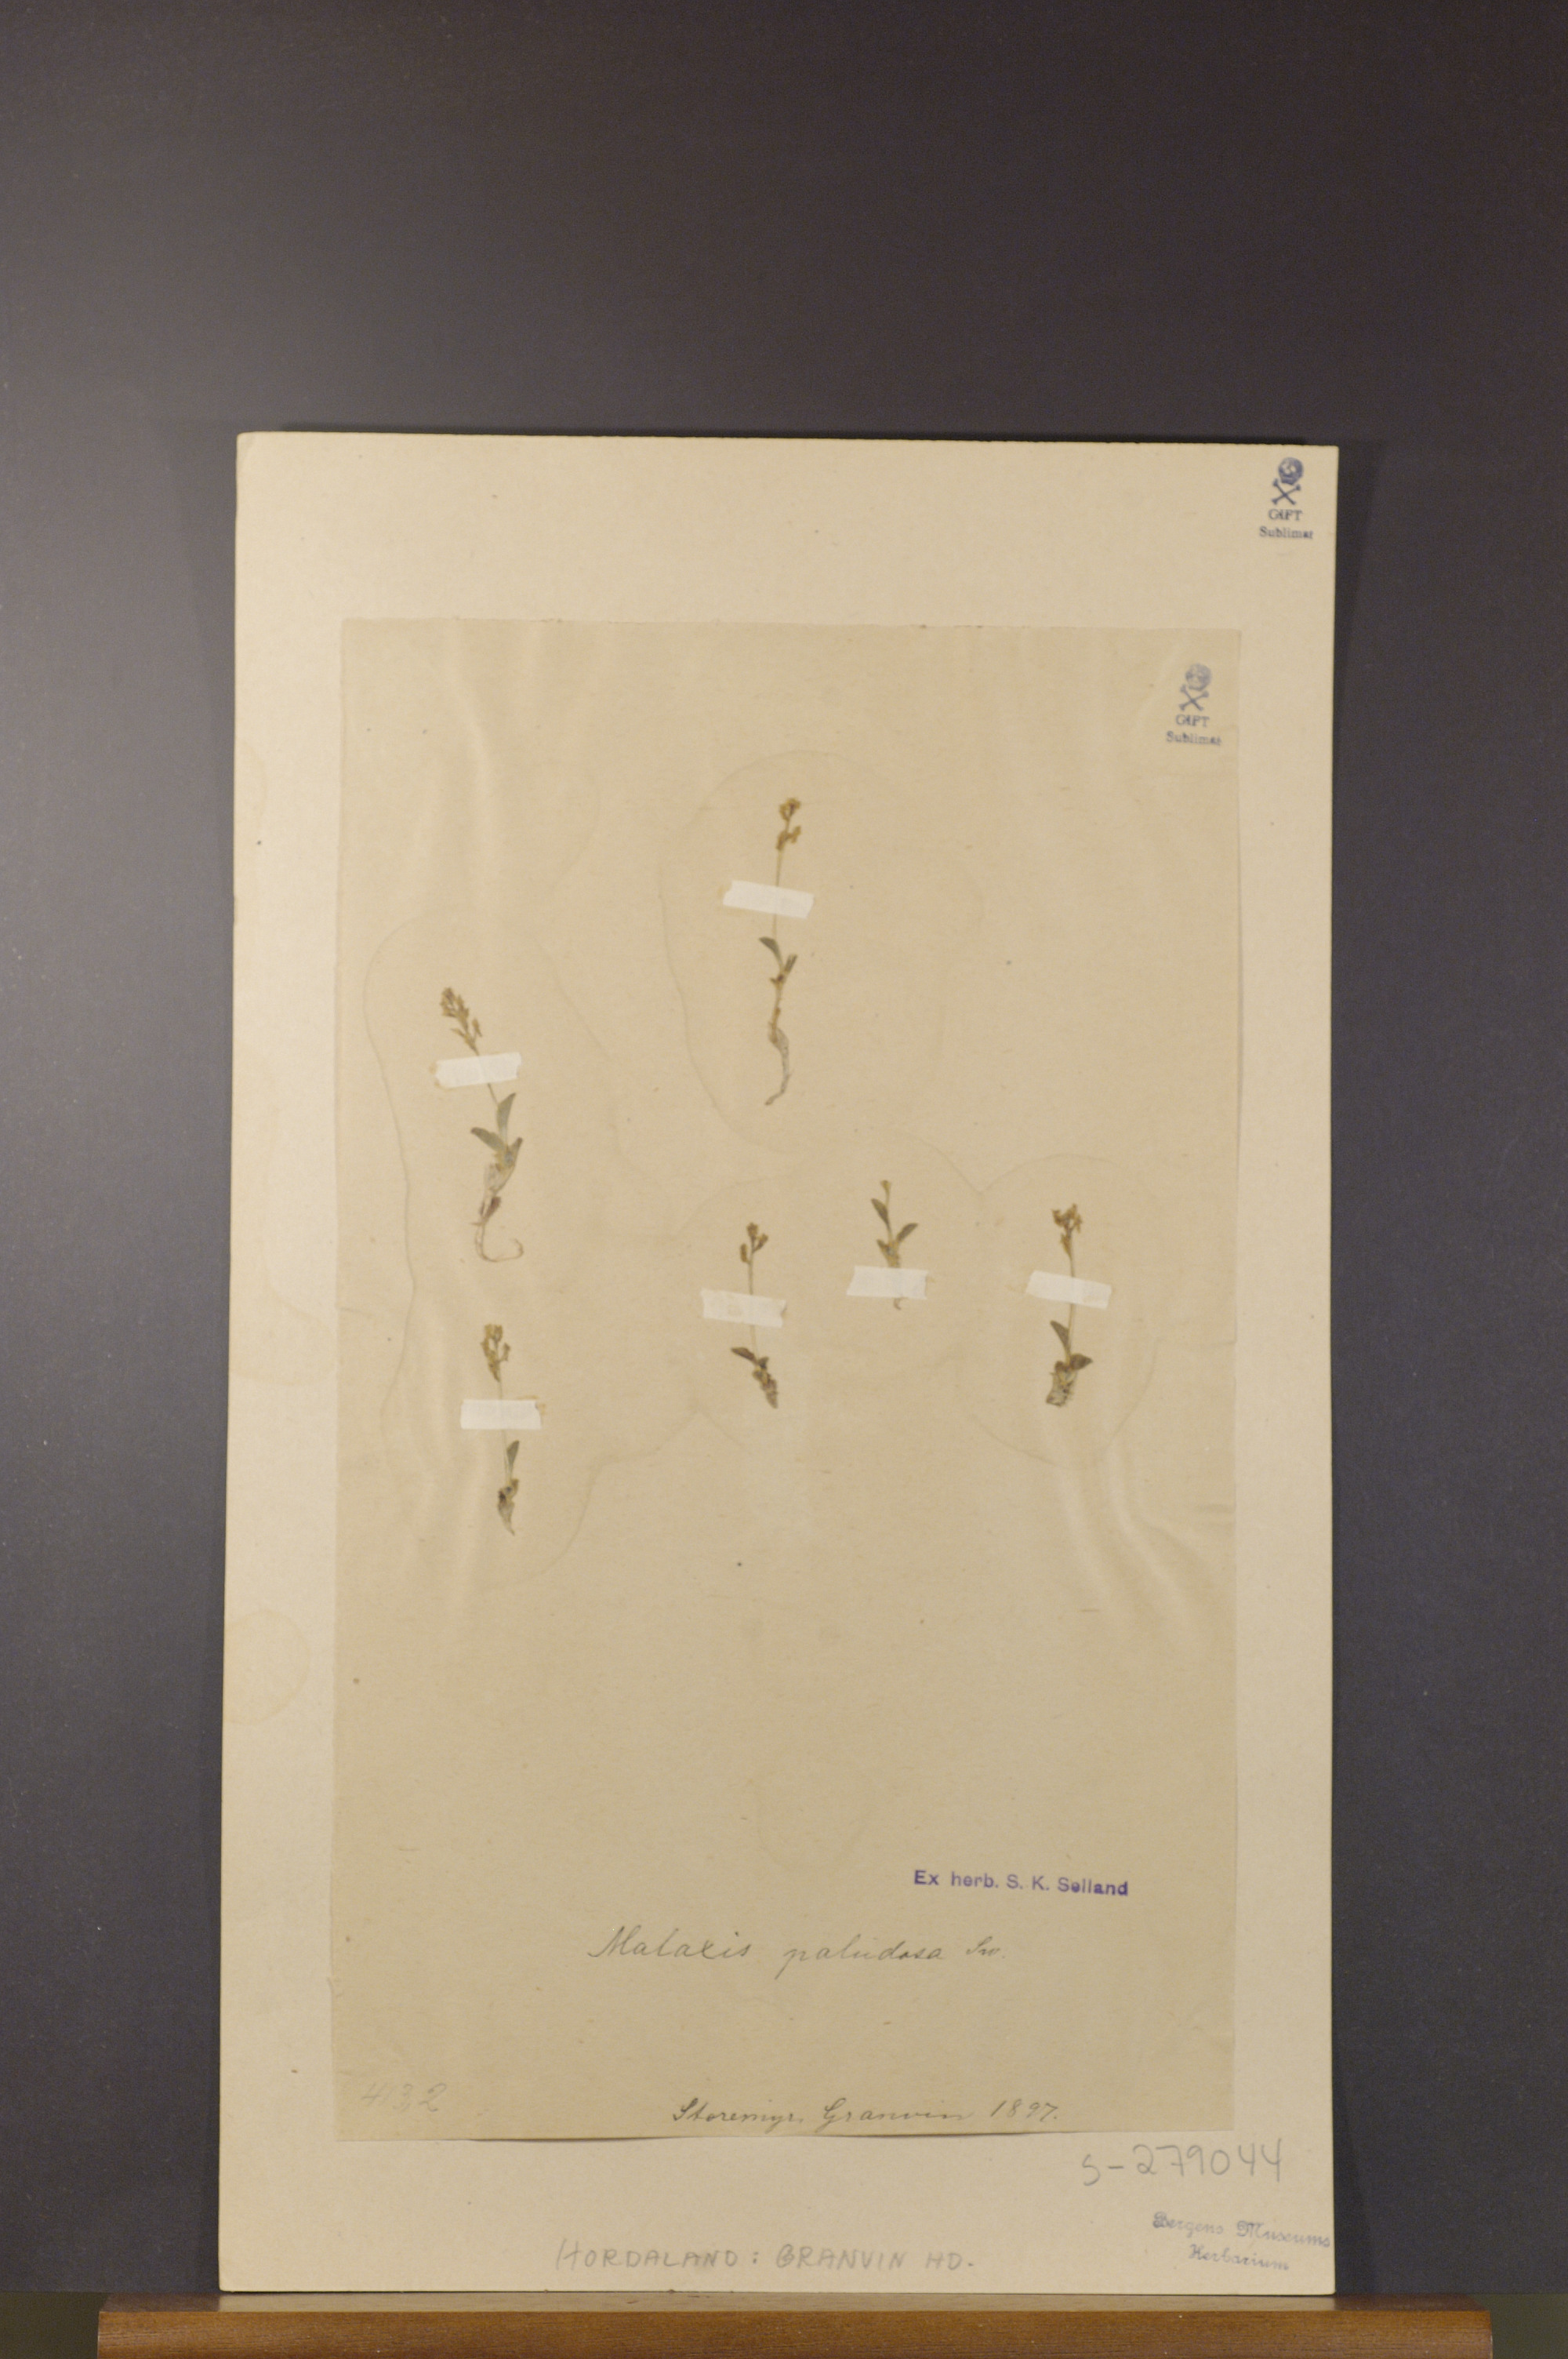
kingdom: Plantae
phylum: Tracheophyta
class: Liliopsida
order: Asparagales
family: Orchidaceae
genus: Hammarbya
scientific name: Hammarbya paludosa
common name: Bog orchid
